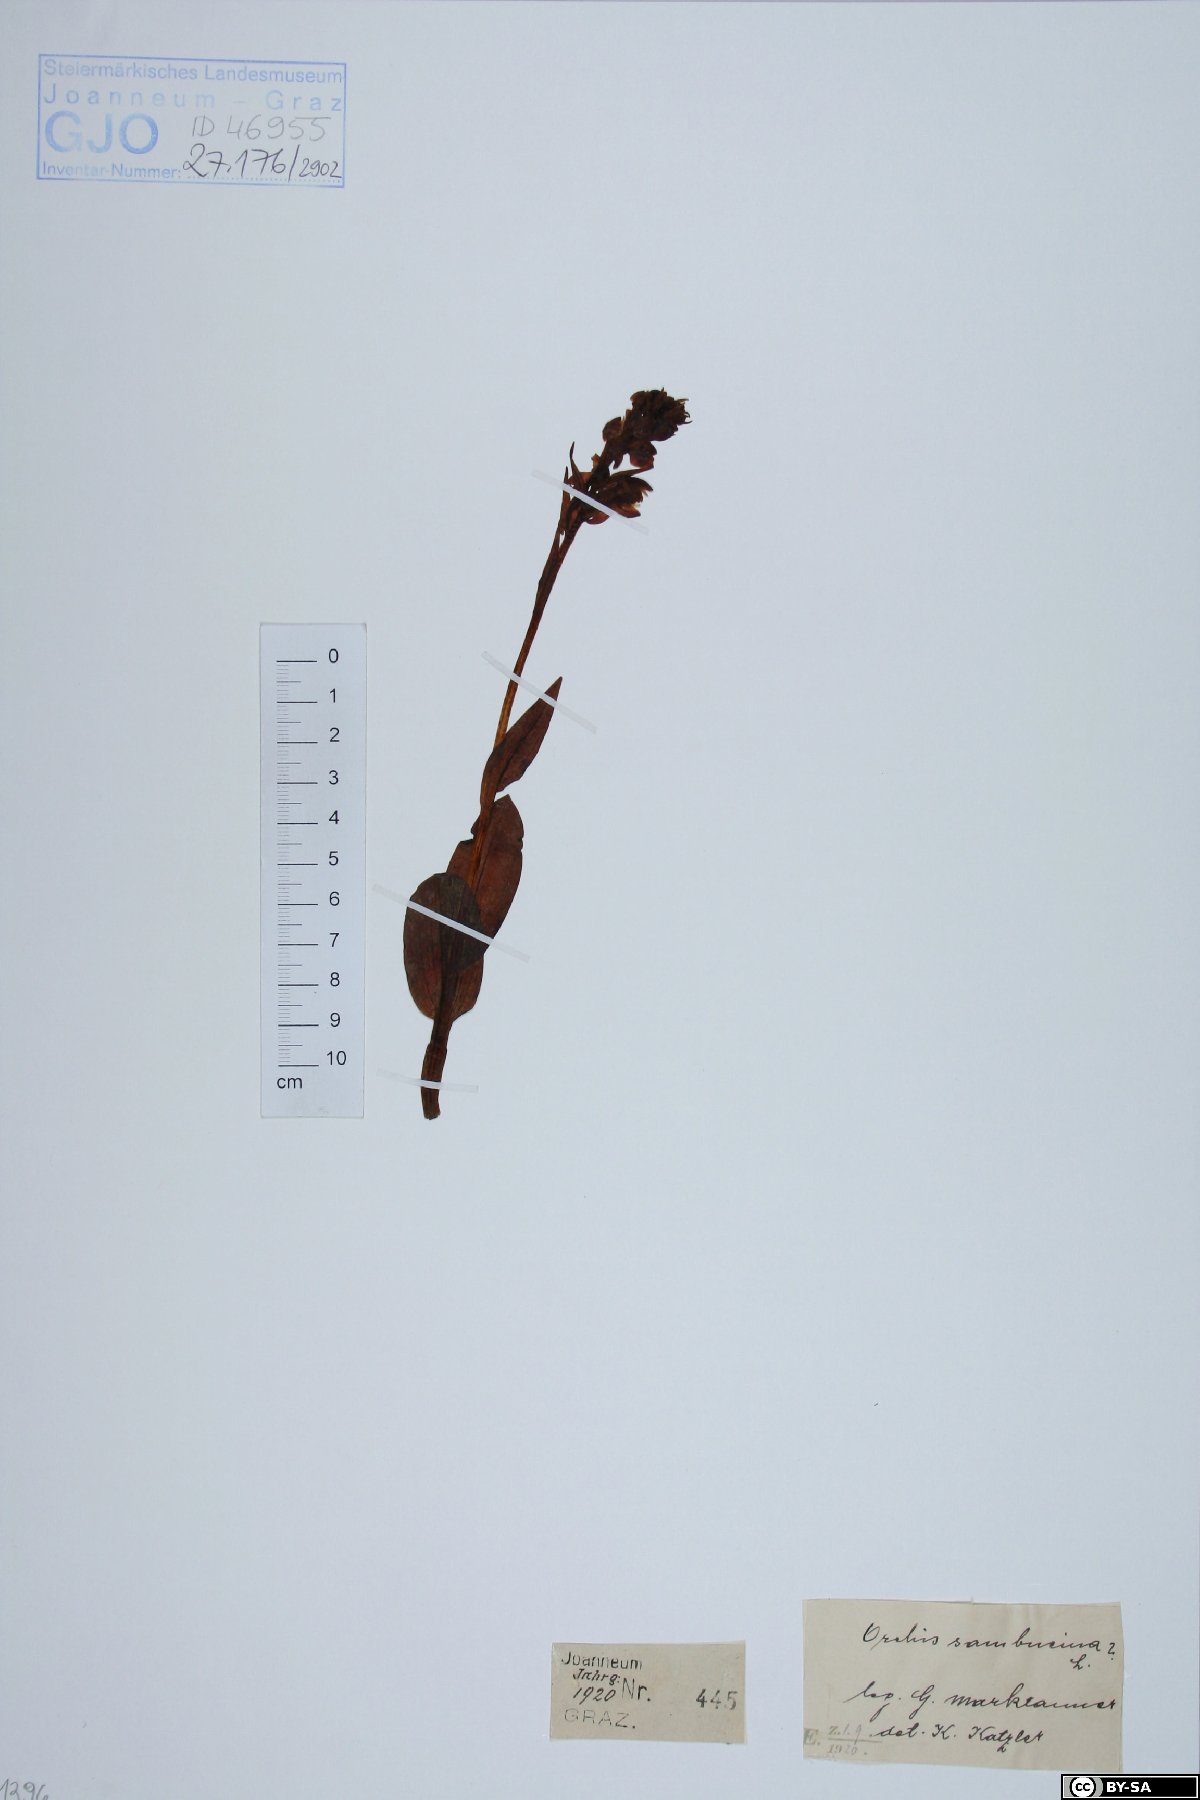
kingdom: Plantae
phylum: Tracheophyta
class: Liliopsida
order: Asparagales
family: Orchidaceae
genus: Dactylorhiza
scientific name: Dactylorhiza sambucina
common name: Elder-flowered orchid
